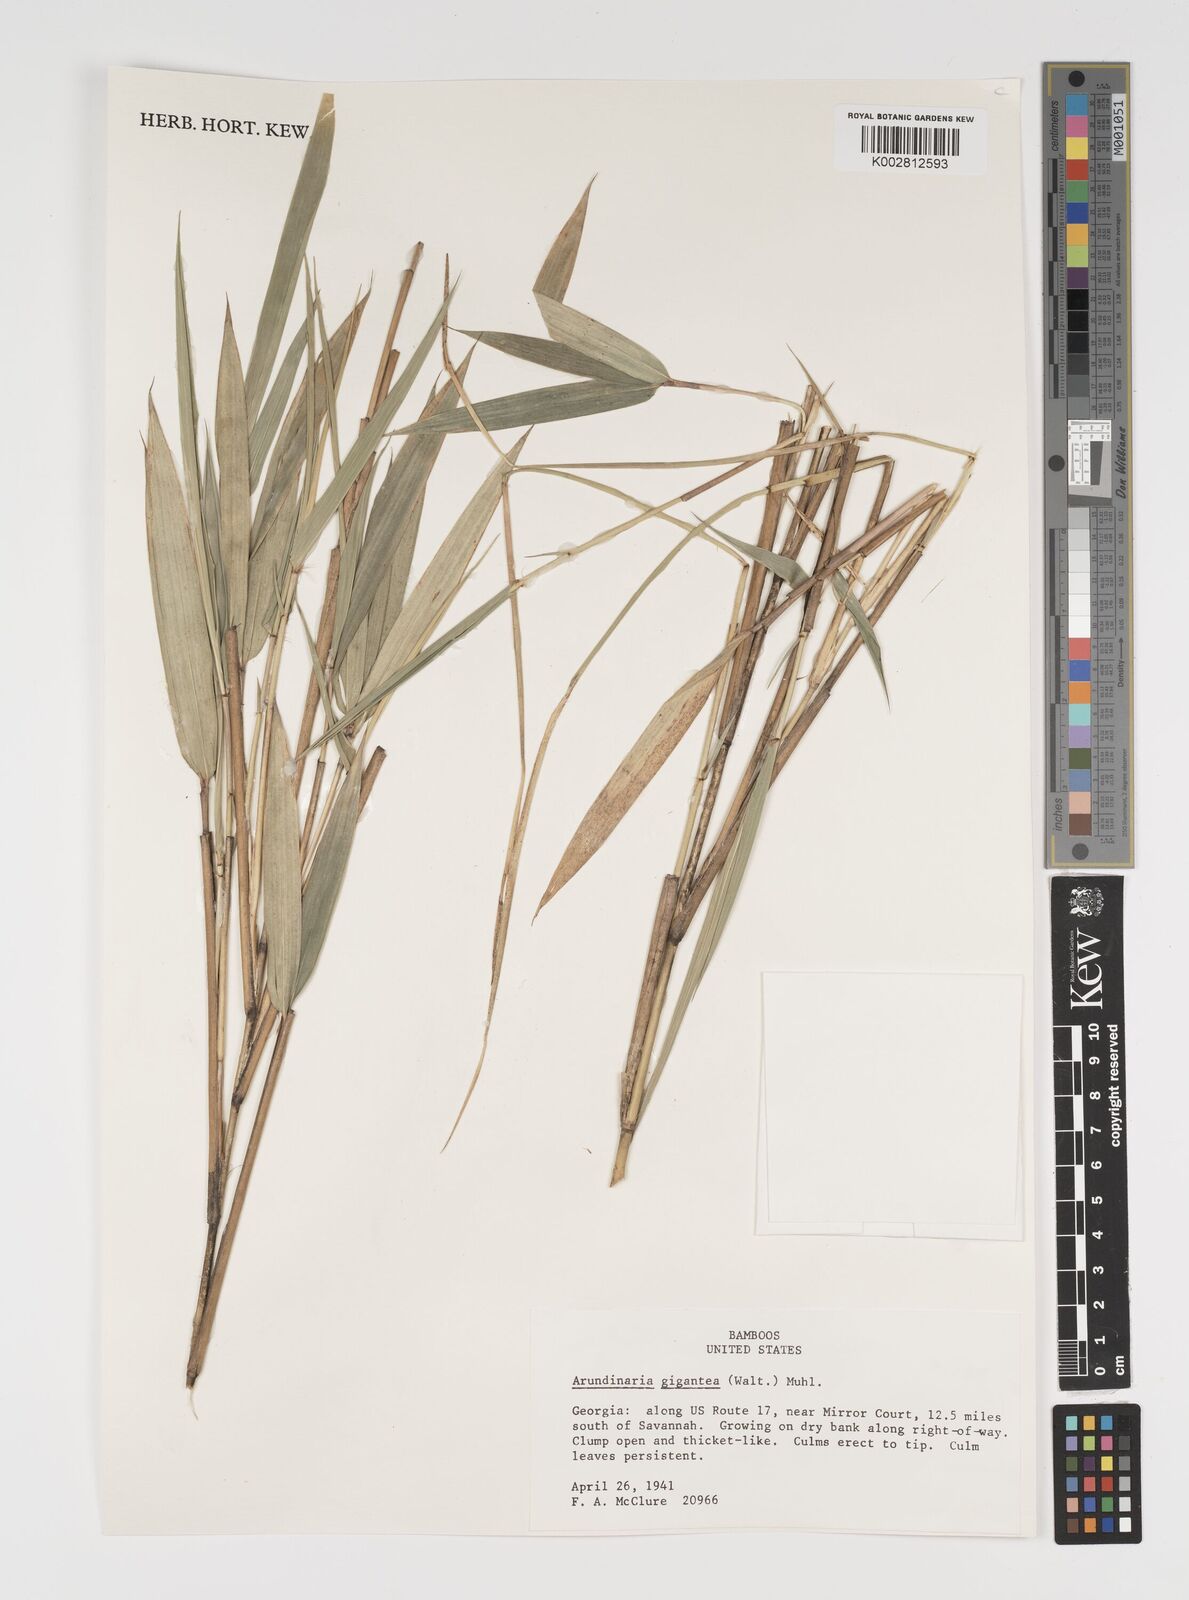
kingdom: Plantae
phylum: Tracheophyta
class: Liliopsida
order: Poales
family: Poaceae
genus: Arundinaria
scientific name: Arundinaria gigantea
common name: Giant cane
